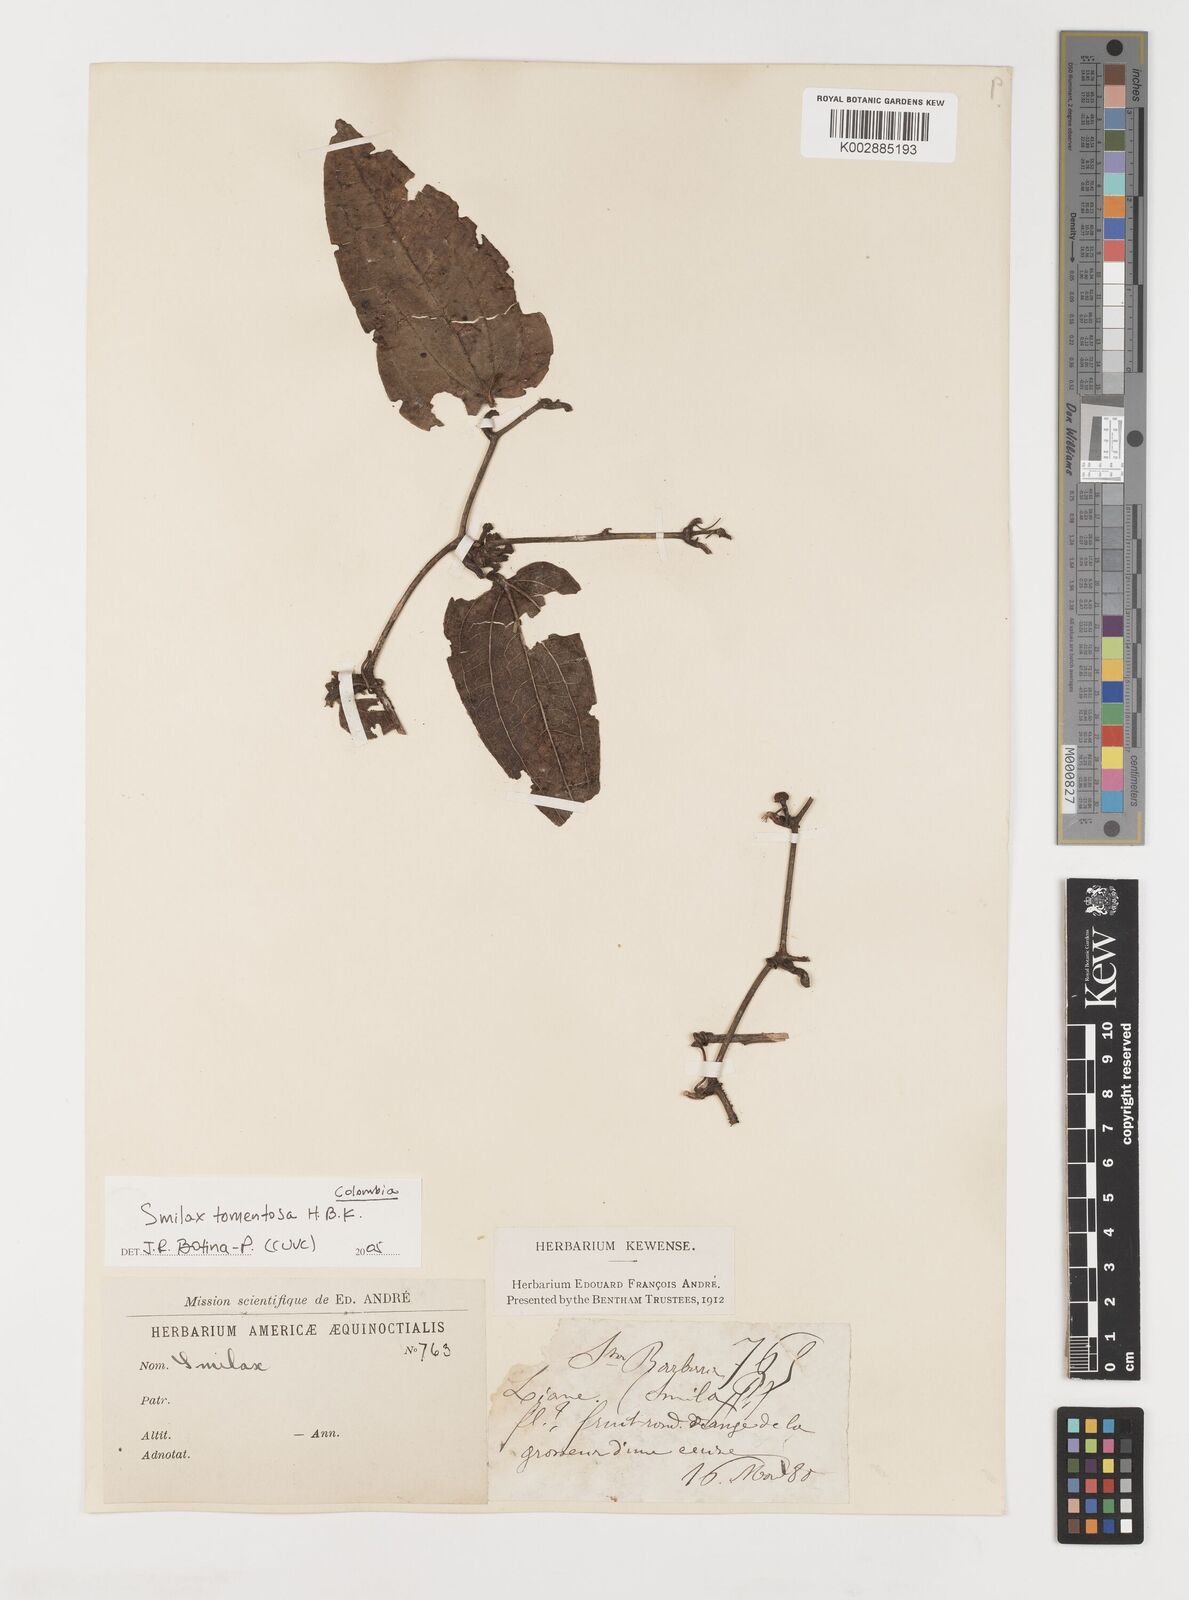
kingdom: Plantae
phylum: Tracheophyta
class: Liliopsida
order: Liliales
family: Smilacaceae
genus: Smilax
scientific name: Smilax tomentosa
